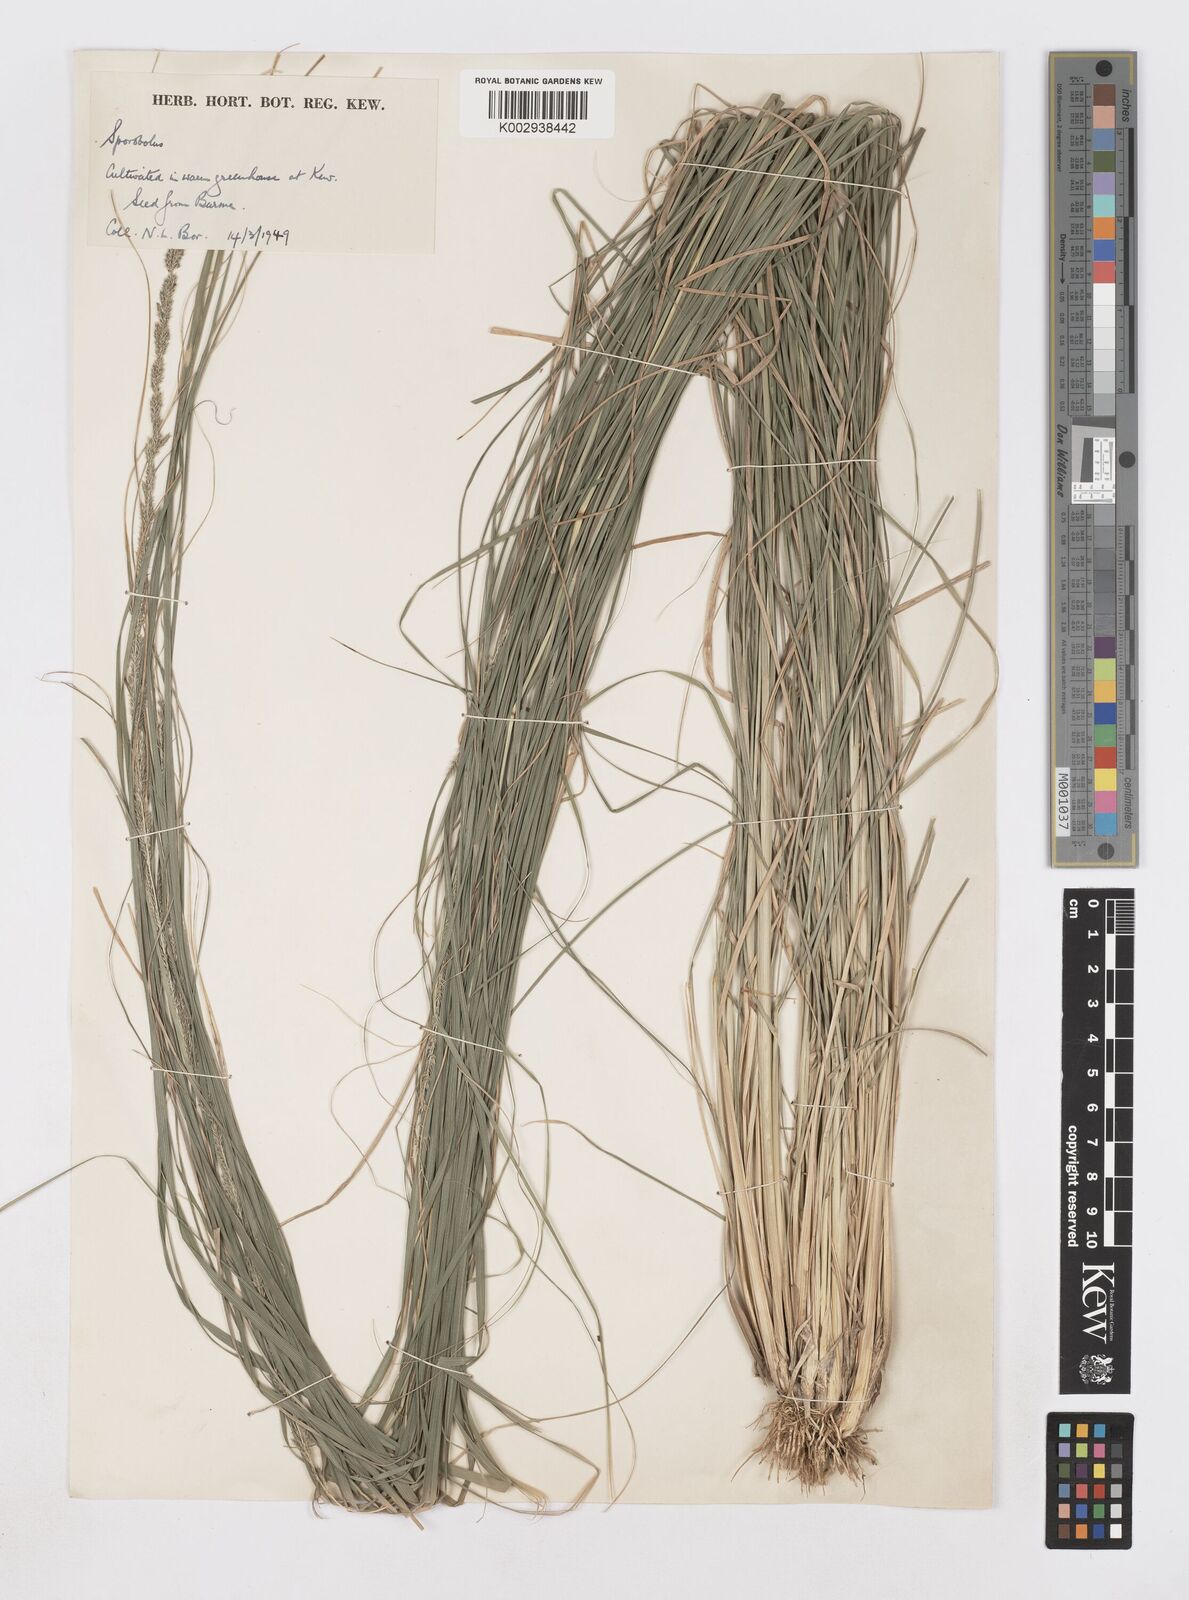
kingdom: Plantae
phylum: Tracheophyta
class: Liliopsida
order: Poales
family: Poaceae
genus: Sporobolus
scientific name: Sporobolus fertilis
